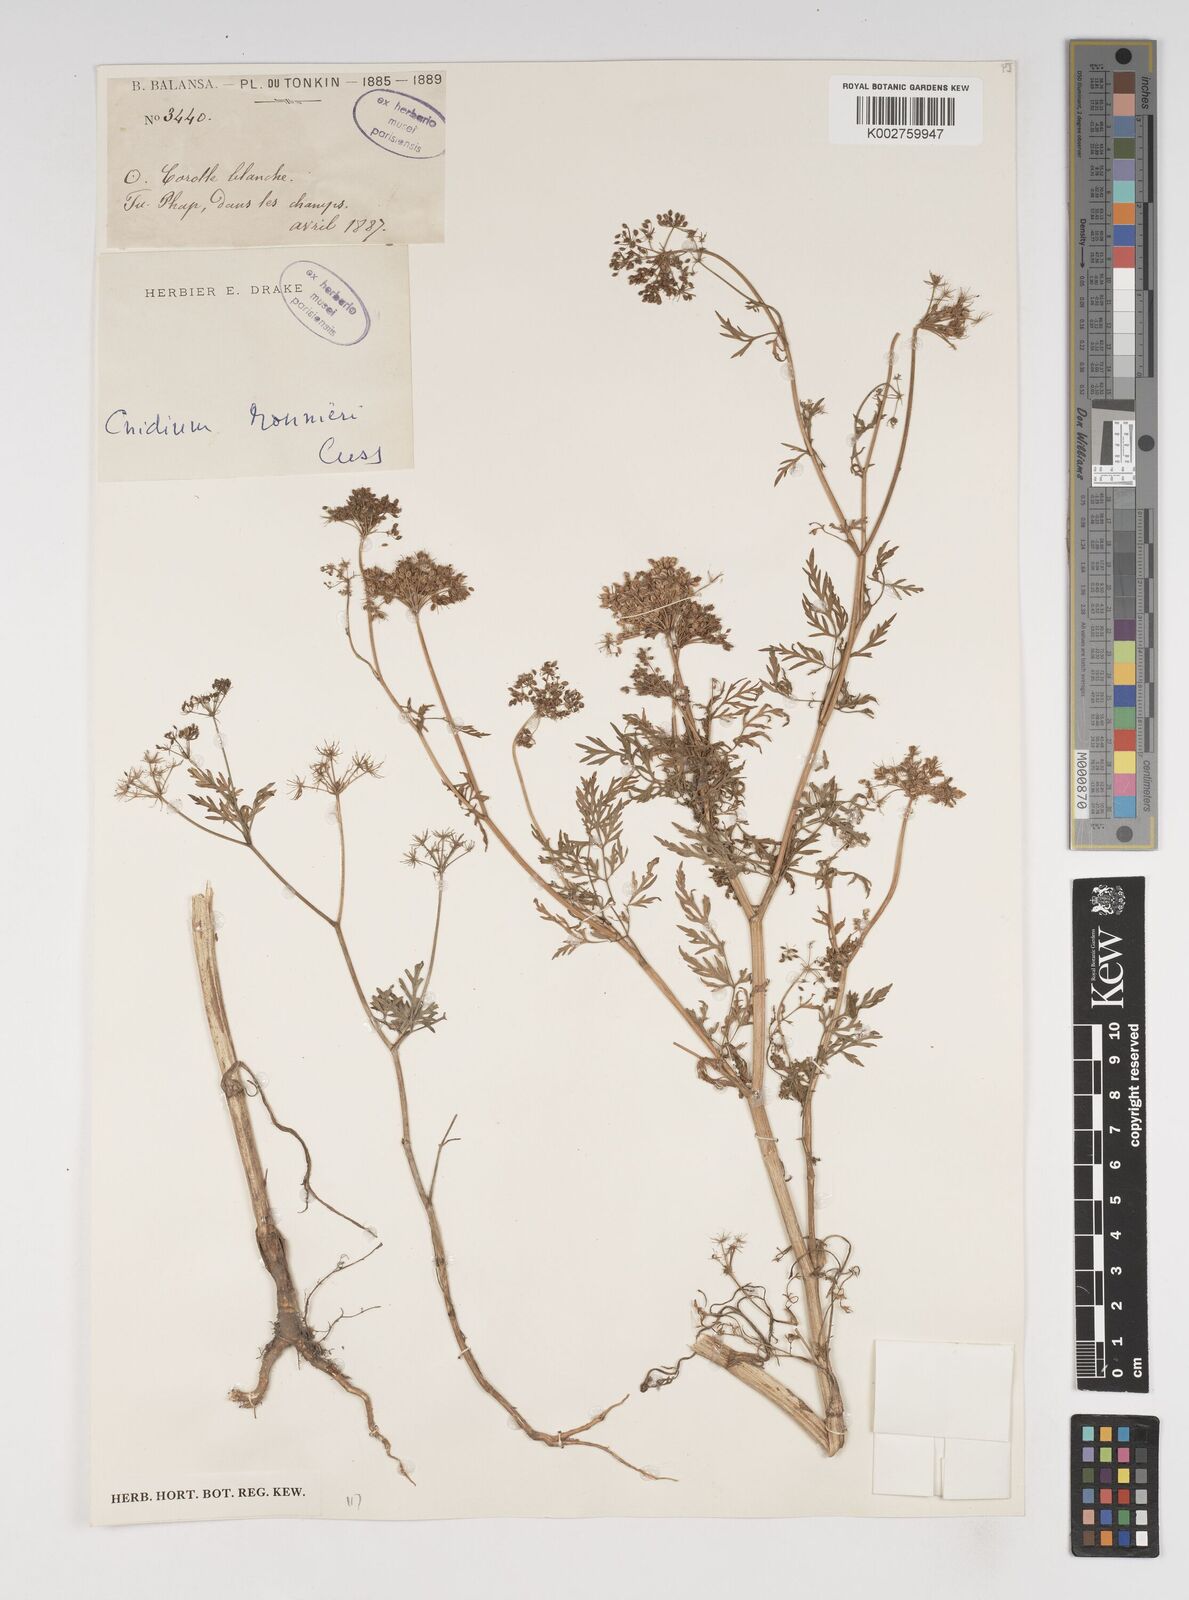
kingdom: Plantae
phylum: Tracheophyta
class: Magnoliopsida
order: Apiales
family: Apiaceae
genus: Cnidium
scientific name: Cnidium monnieri
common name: Monnier's snowparsley
